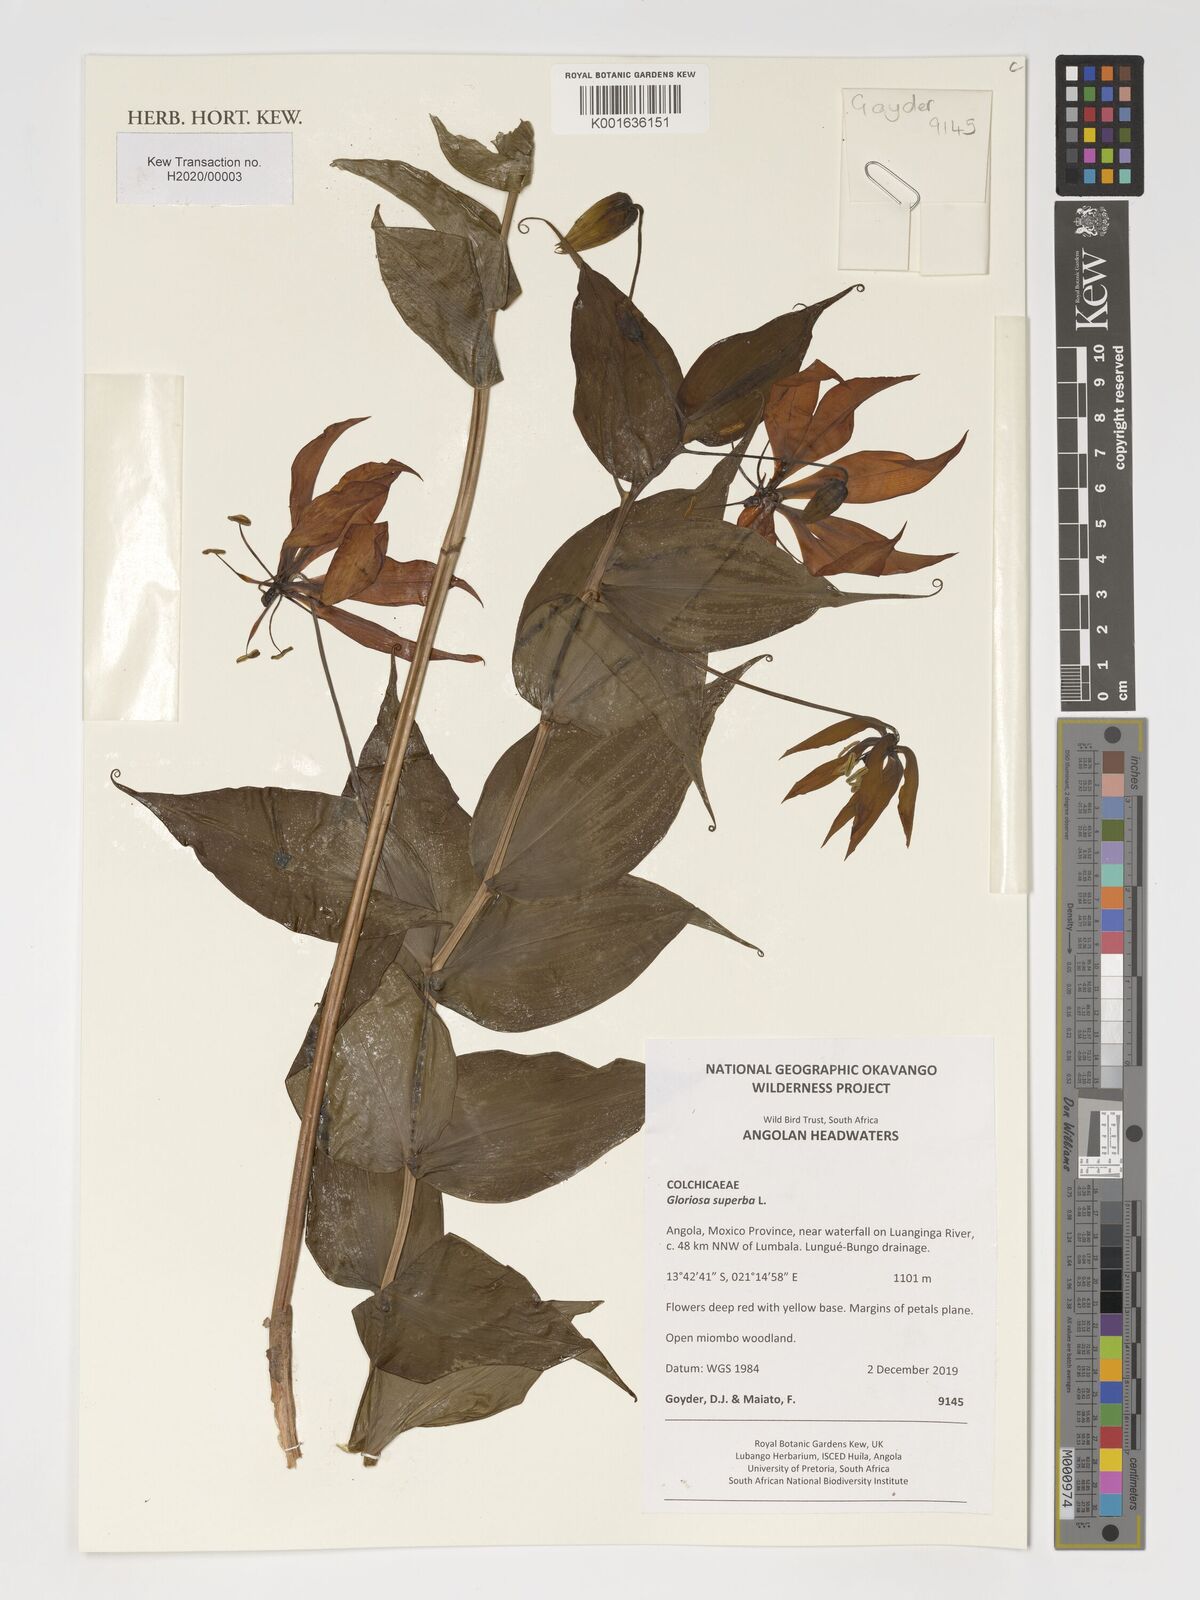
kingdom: Plantae
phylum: Tracheophyta
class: Liliopsida
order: Liliales
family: Colchicaceae
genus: Gloriosa
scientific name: Gloriosa superba
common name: Flame lily
